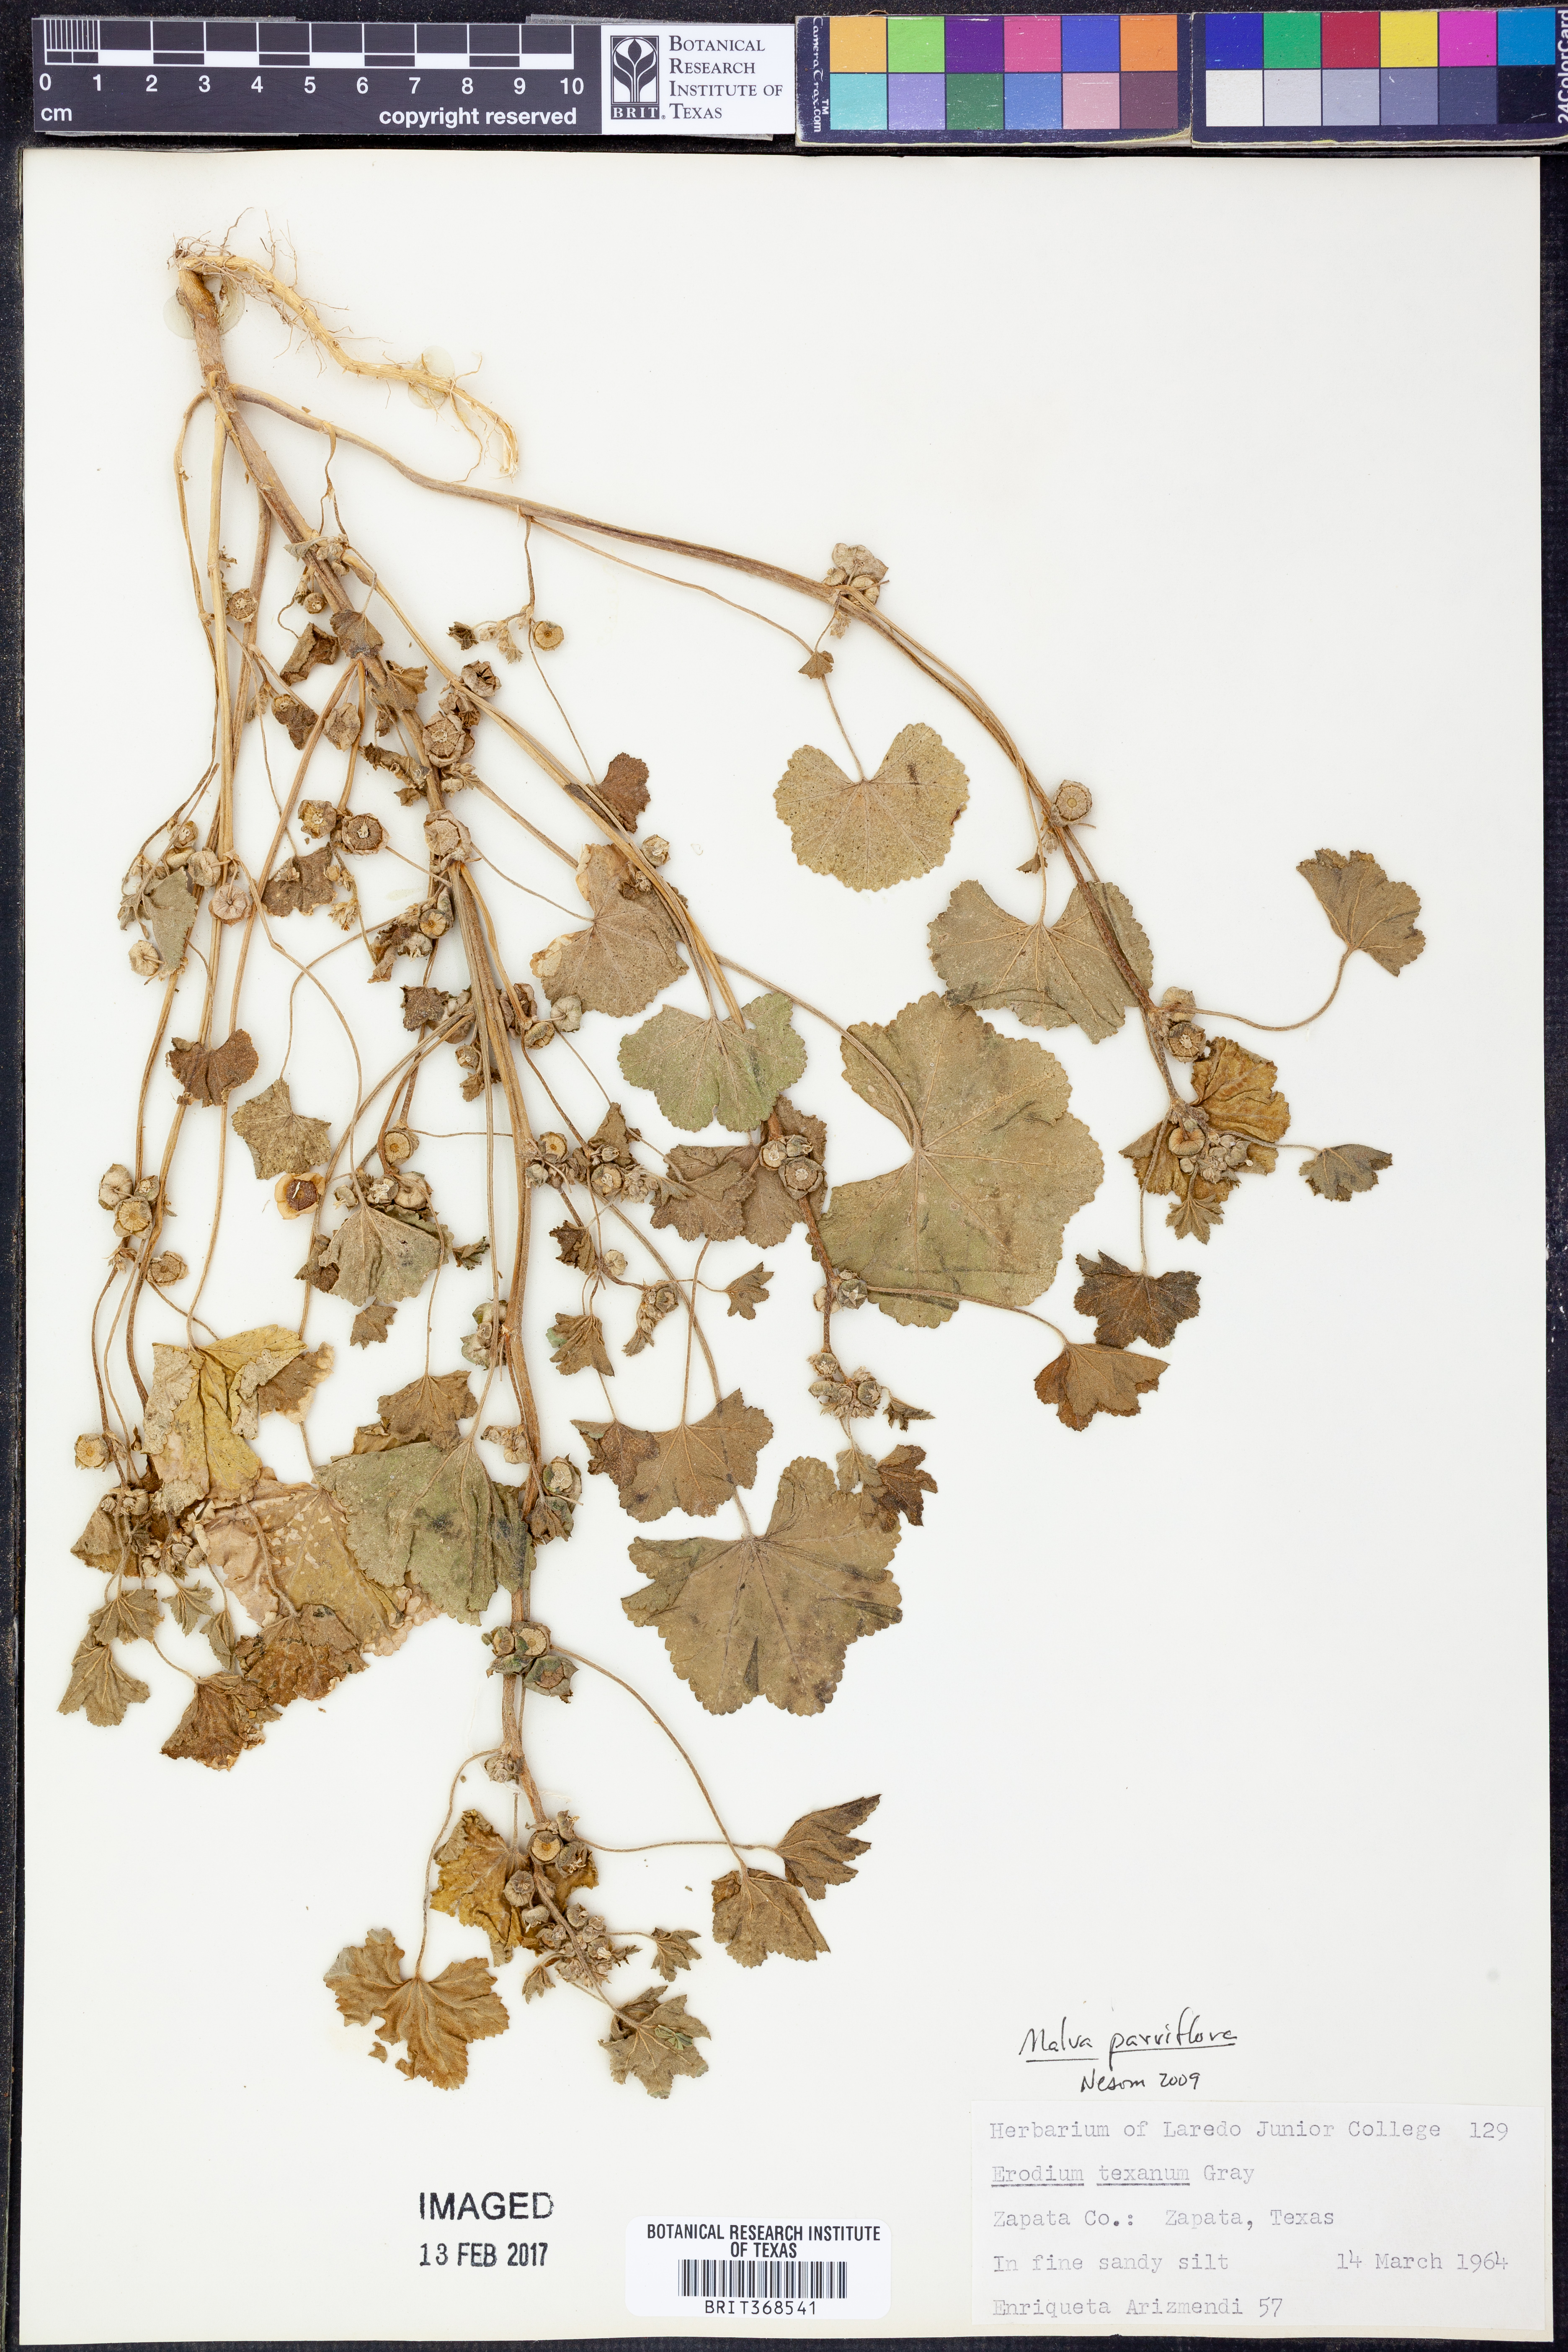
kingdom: Plantae
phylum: Tracheophyta
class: Magnoliopsida
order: Malvales
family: Malvaceae
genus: Malva
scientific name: Malva parviflora
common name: Least mallow
